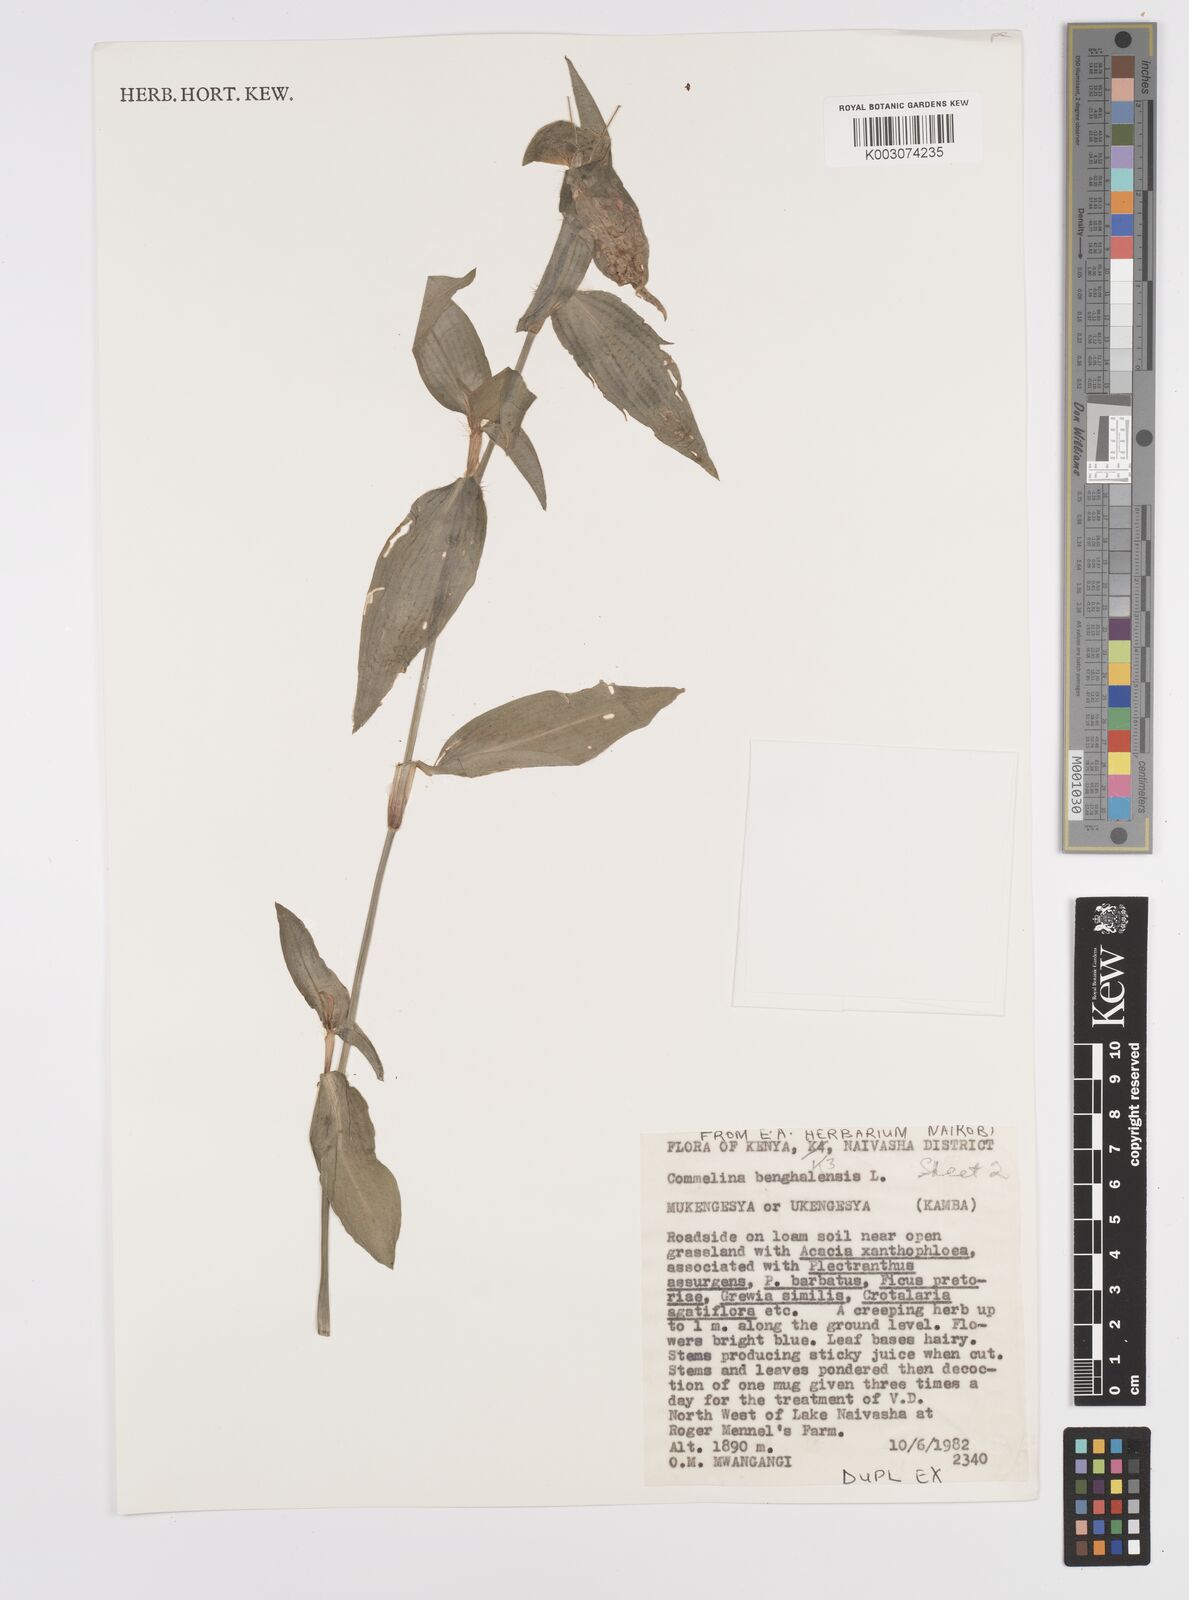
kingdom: Plantae
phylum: Tracheophyta
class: Liliopsida
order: Commelinales
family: Commelinaceae
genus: Commelina
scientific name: Commelina benghalensis
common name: Jio
